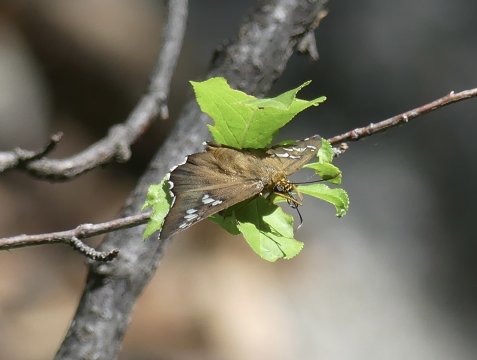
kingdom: Animalia
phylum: Arthropoda
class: Insecta
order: Lepidoptera
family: Hesperiidae
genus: Pyrrhopyge
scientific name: Pyrrhopyge araxes
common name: Dull Firetip
